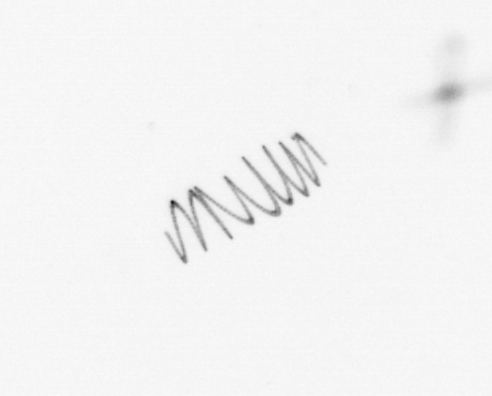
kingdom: Chromista
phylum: Ochrophyta
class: Bacillariophyceae
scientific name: Bacillariophyceae
